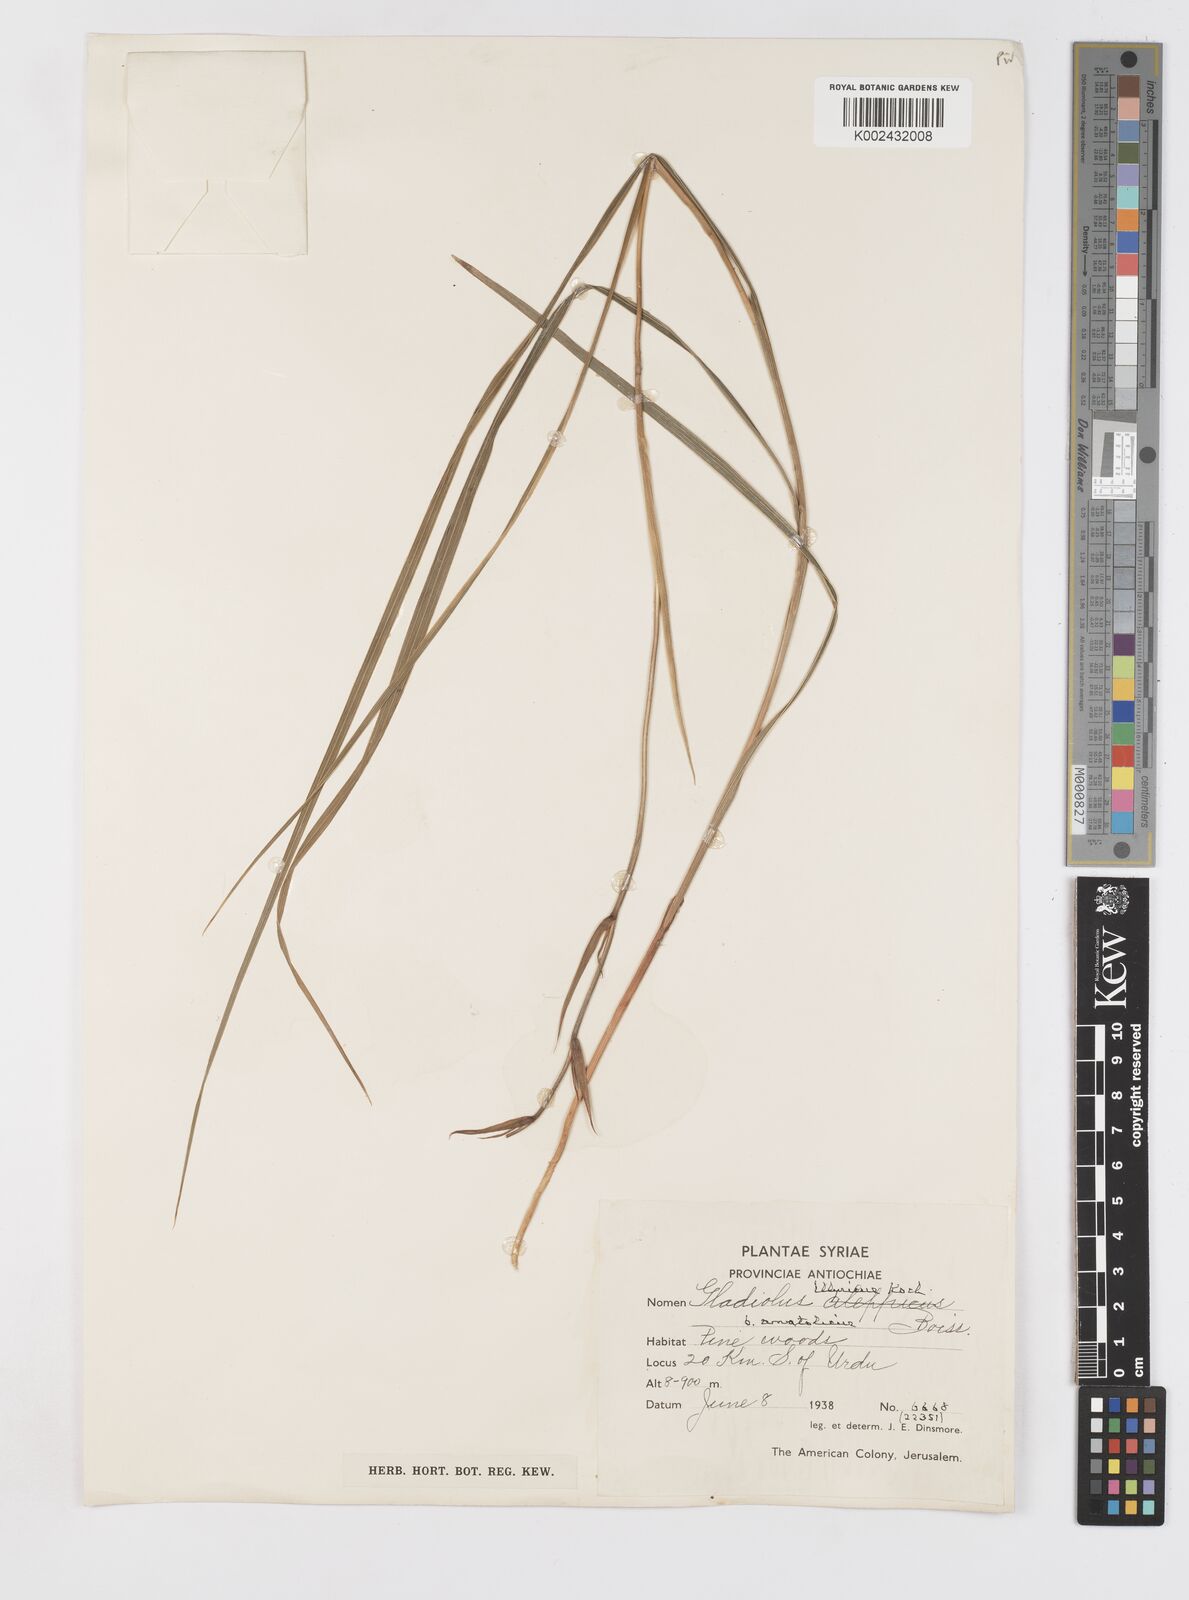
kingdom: Plantae
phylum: Tracheophyta
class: Liliopsida
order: Asparagales
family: Iridaceae
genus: Gladiolus
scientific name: Gladiolus illyricus
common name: Wild gladiolus
